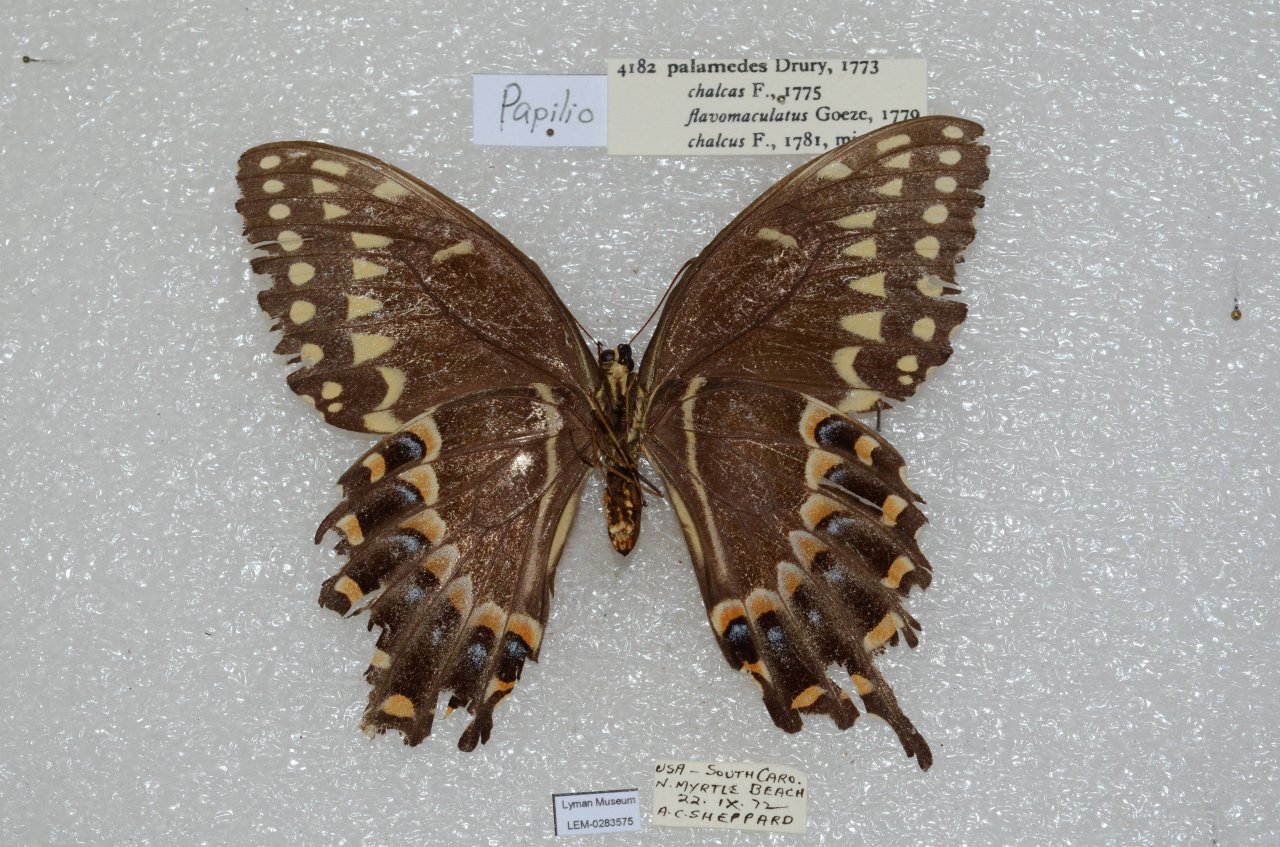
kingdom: Animalia
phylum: Arthropoda
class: Insecta
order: Lepidoptera
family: Papilionidae
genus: Pterourus
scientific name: Pterourus palamedes
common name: Palamedes Swallowtail
